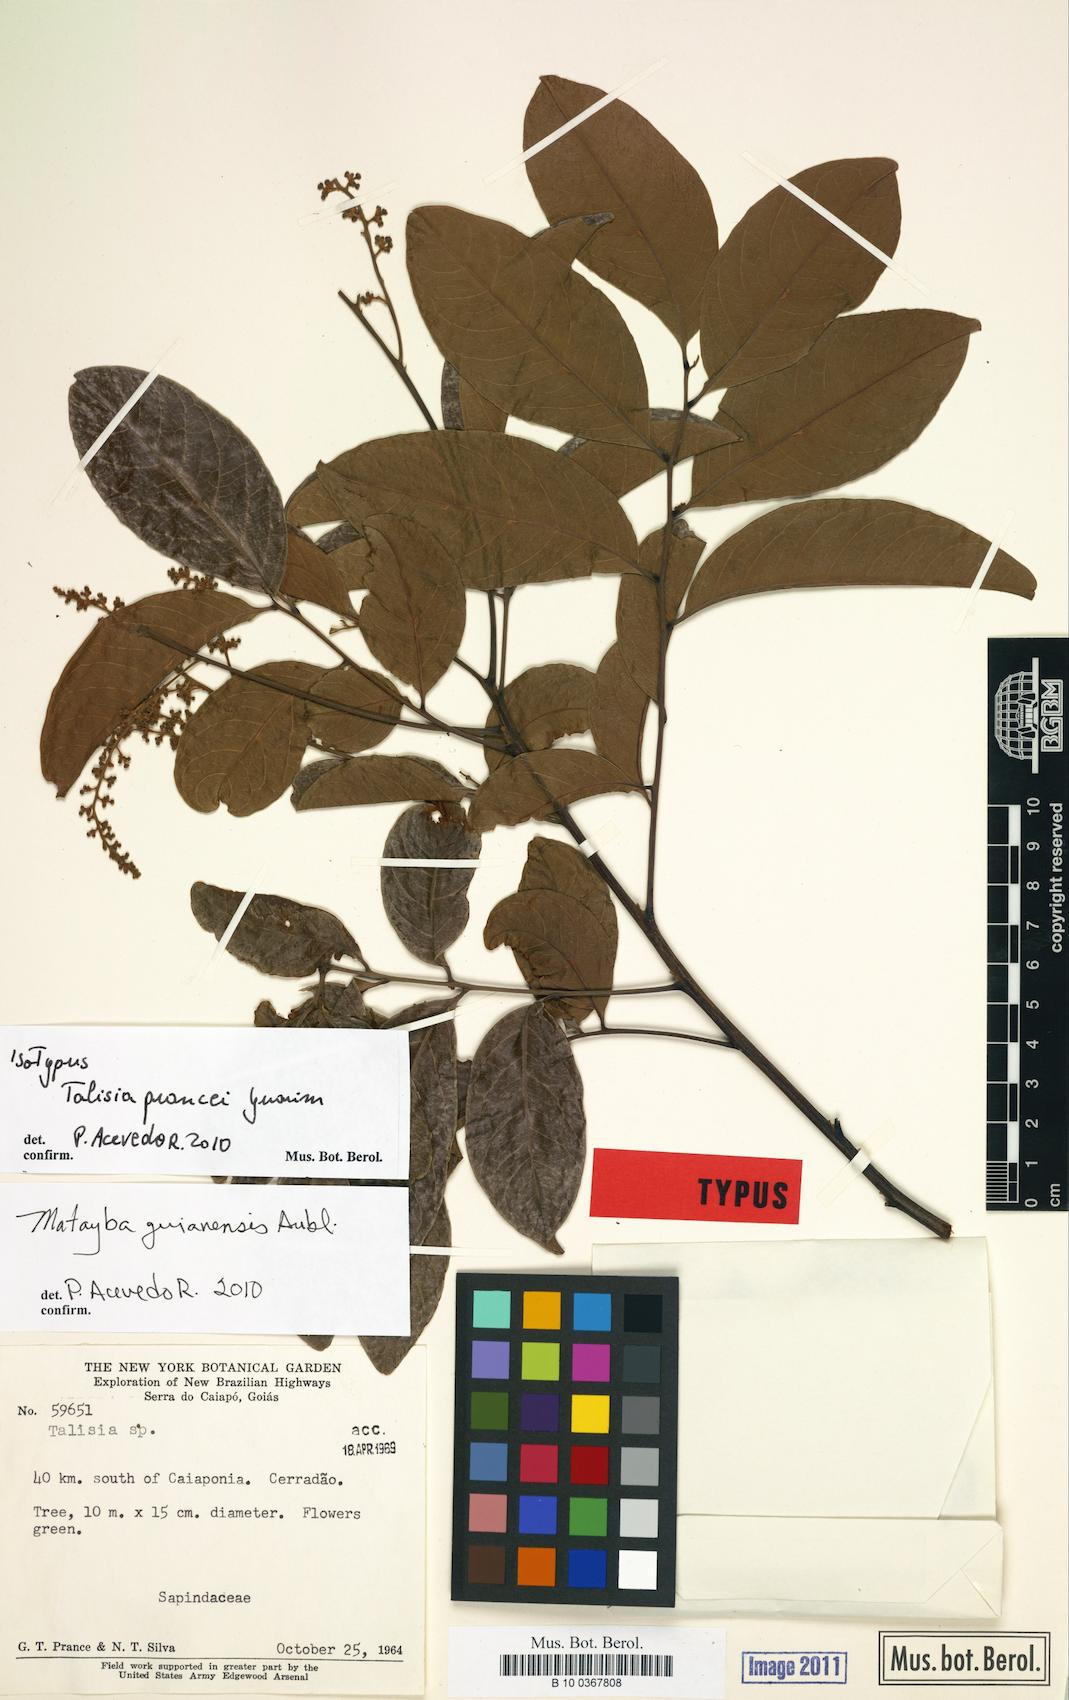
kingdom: Plantae
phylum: Tracheophyta
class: Magnoliopsida
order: Sapindales
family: Sapindaceae
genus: Matayba
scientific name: Matayba guianensis
